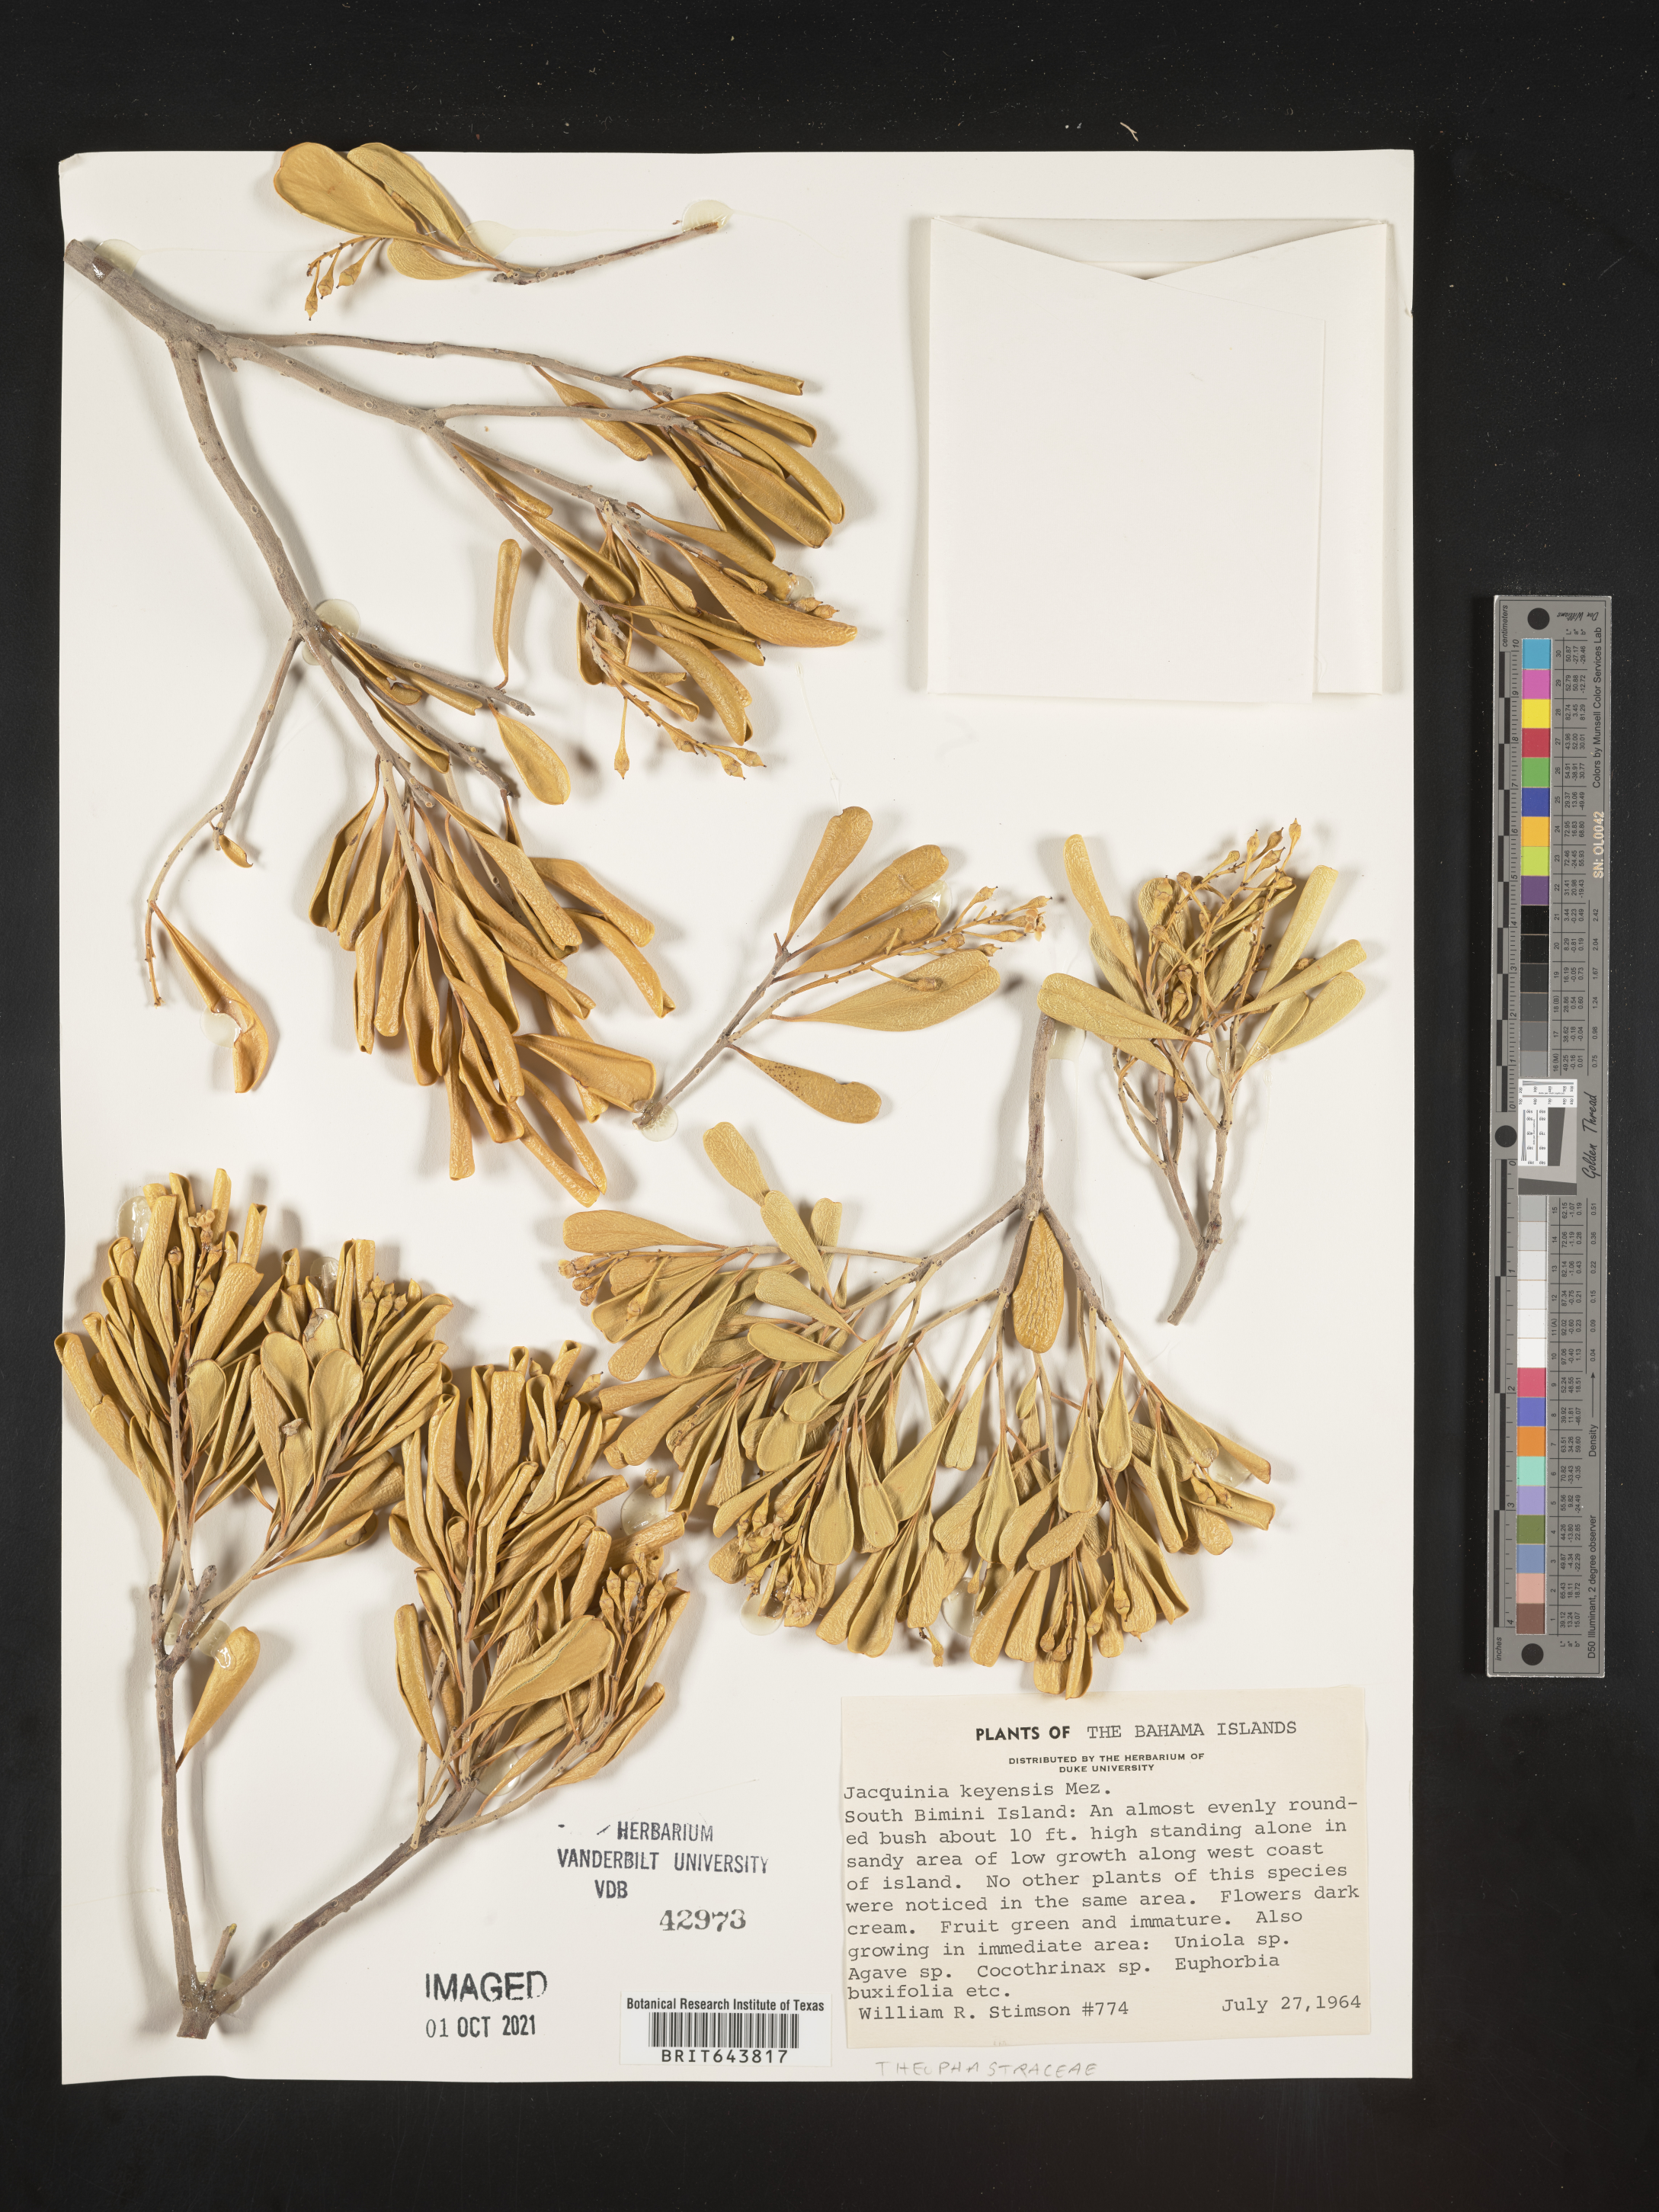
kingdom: Plantae
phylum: Tracheophyta
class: Magnoliopsida
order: Ericales
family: Primulaceae
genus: Jacquinia
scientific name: Jacquinia
